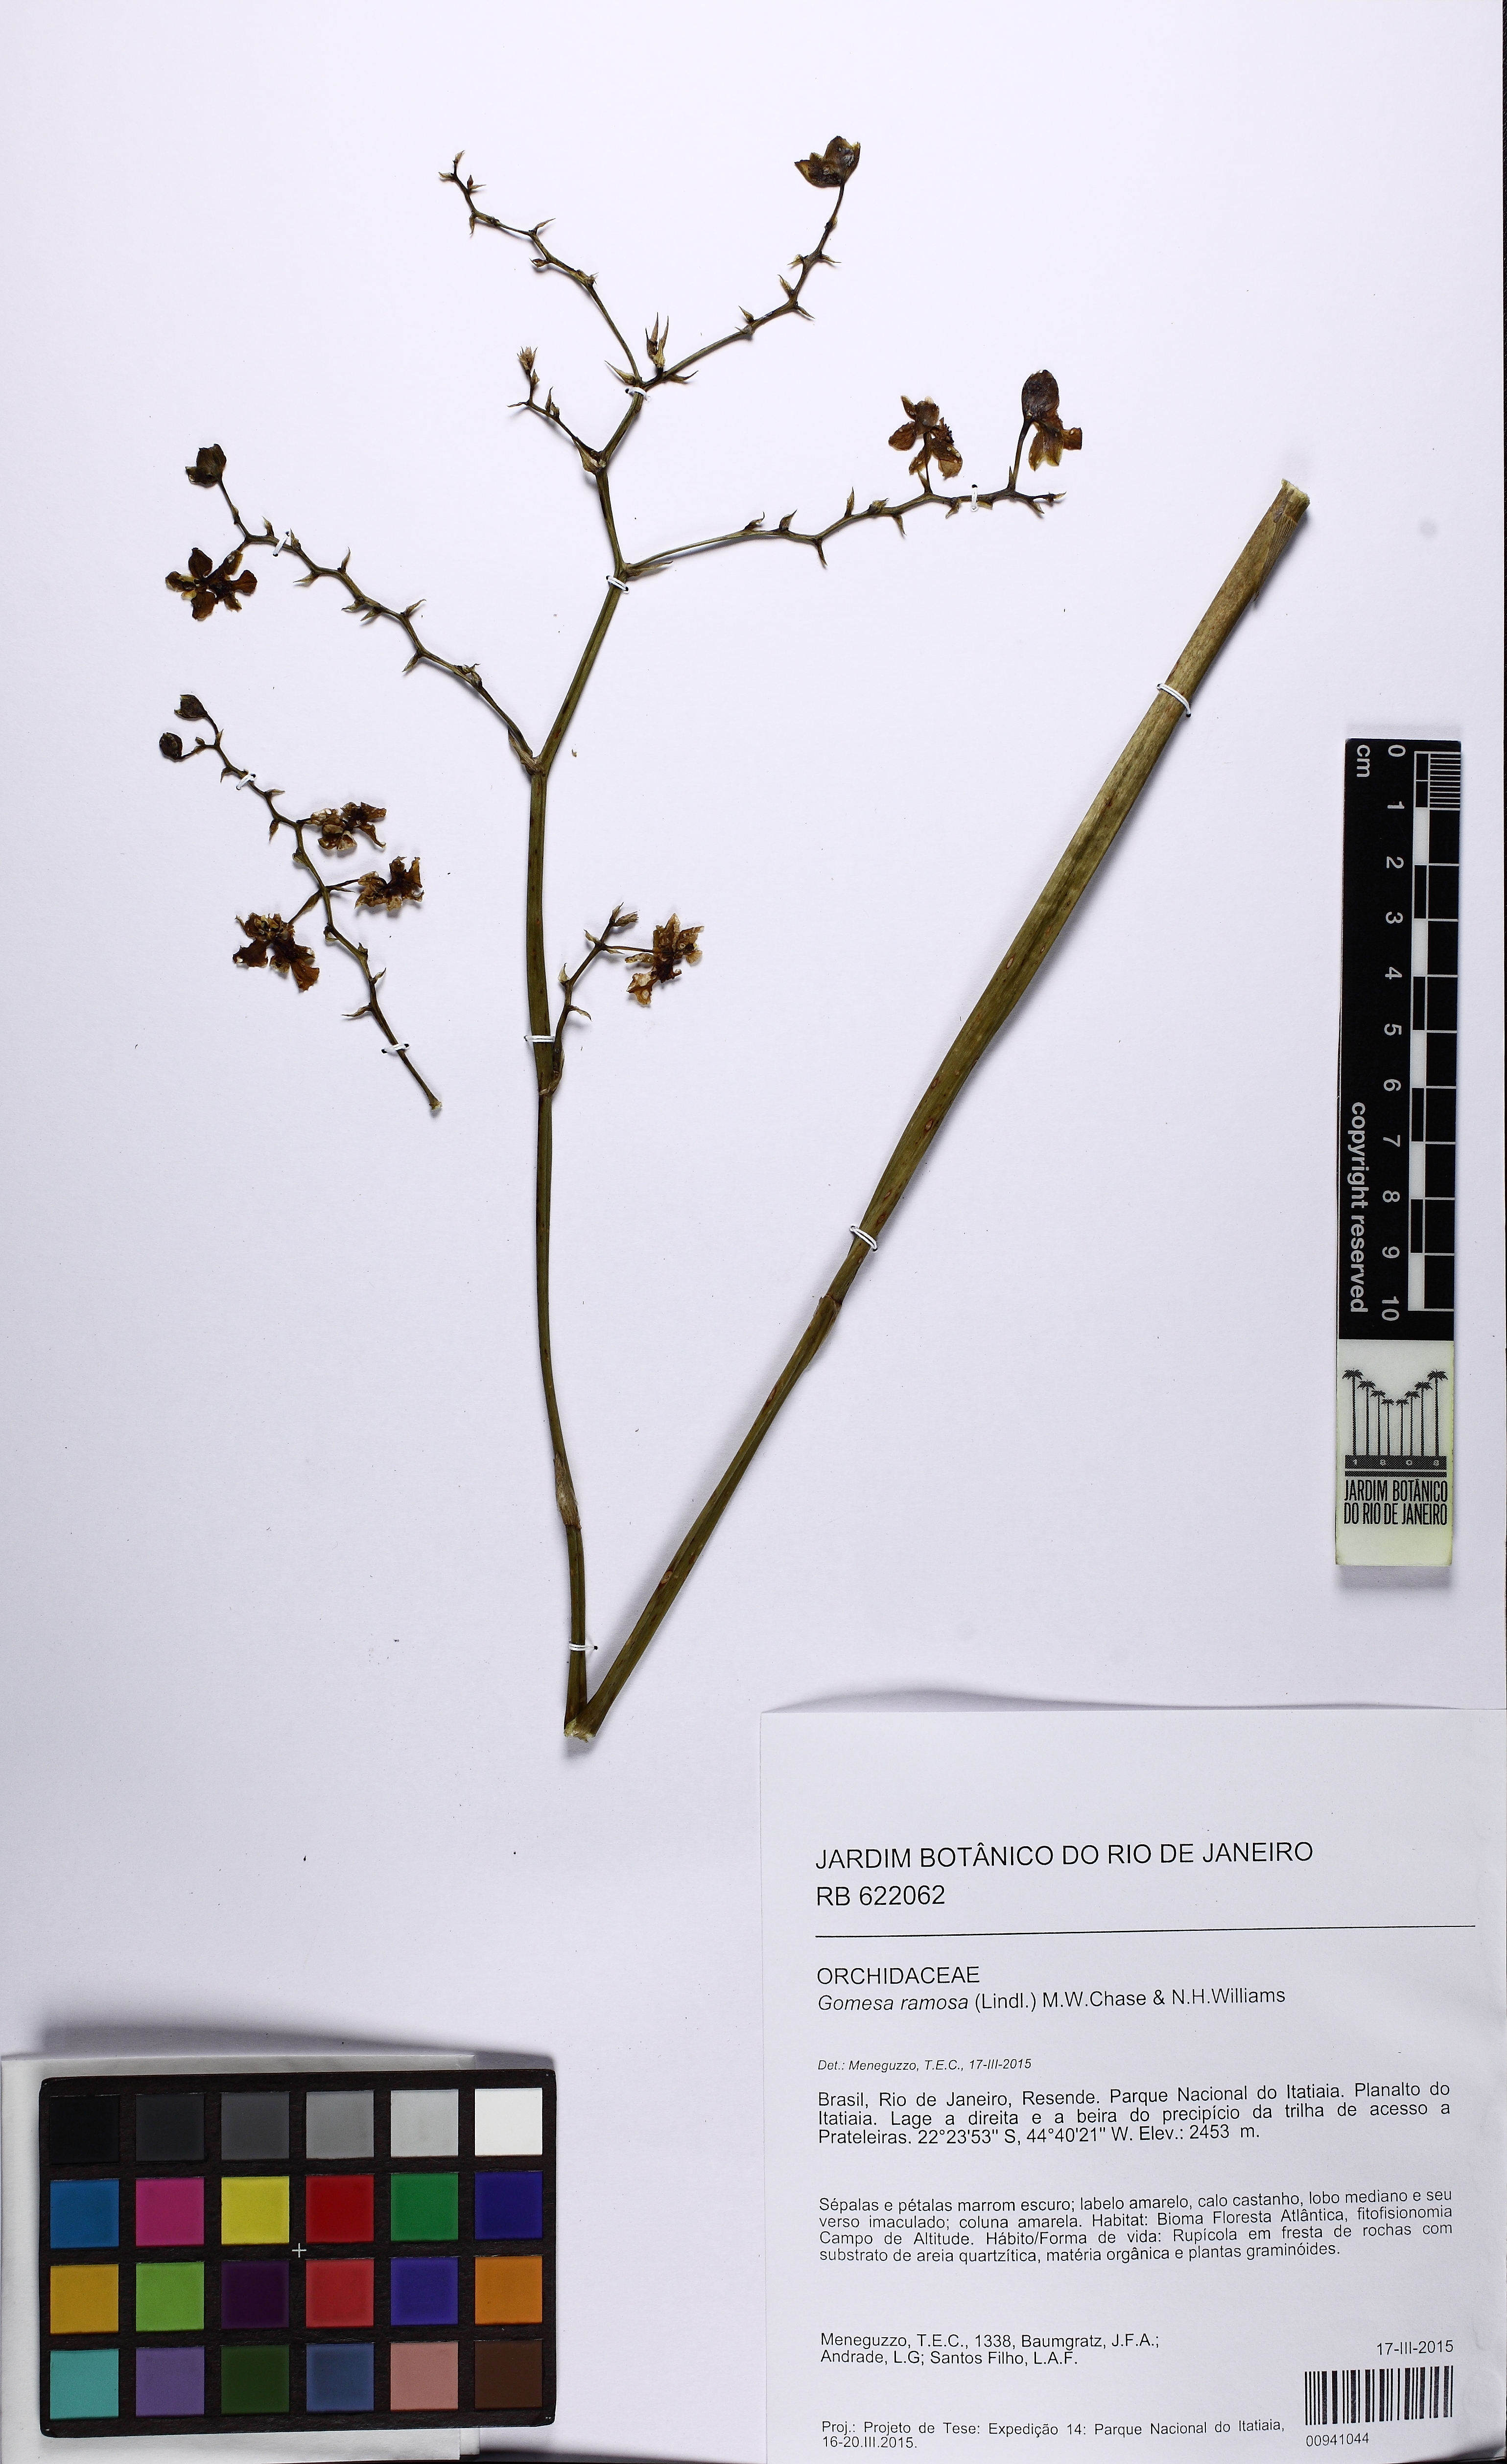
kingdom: Plantae
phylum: Tracheophyta
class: Liliopsida
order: Asparagales
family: Orchidaceae
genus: Gomesa
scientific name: Gomesa ramosa
